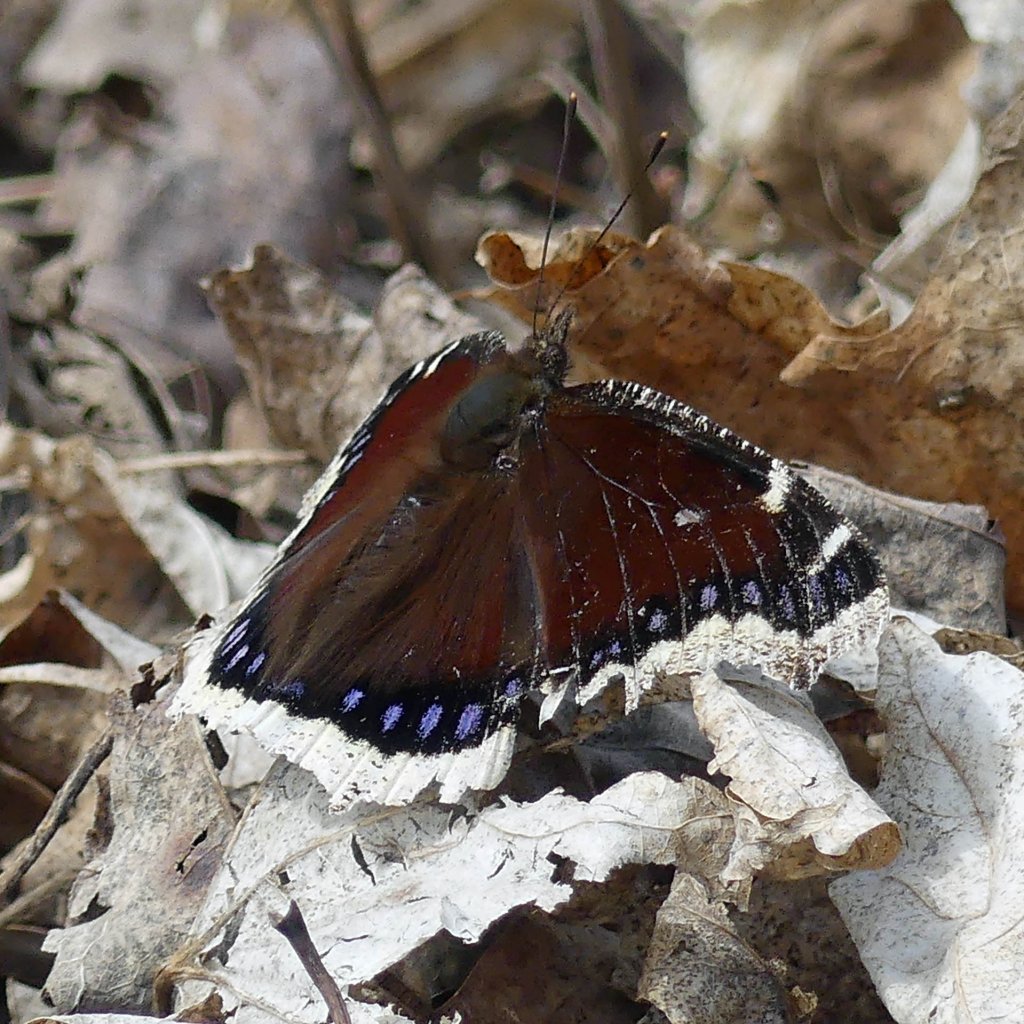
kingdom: Animalia
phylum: Arthropoda
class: Insecta
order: Lepidoptera
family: Nymphalidae
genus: Nymphalis
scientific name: Nymphalis antiopa
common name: Mourning Cloak
